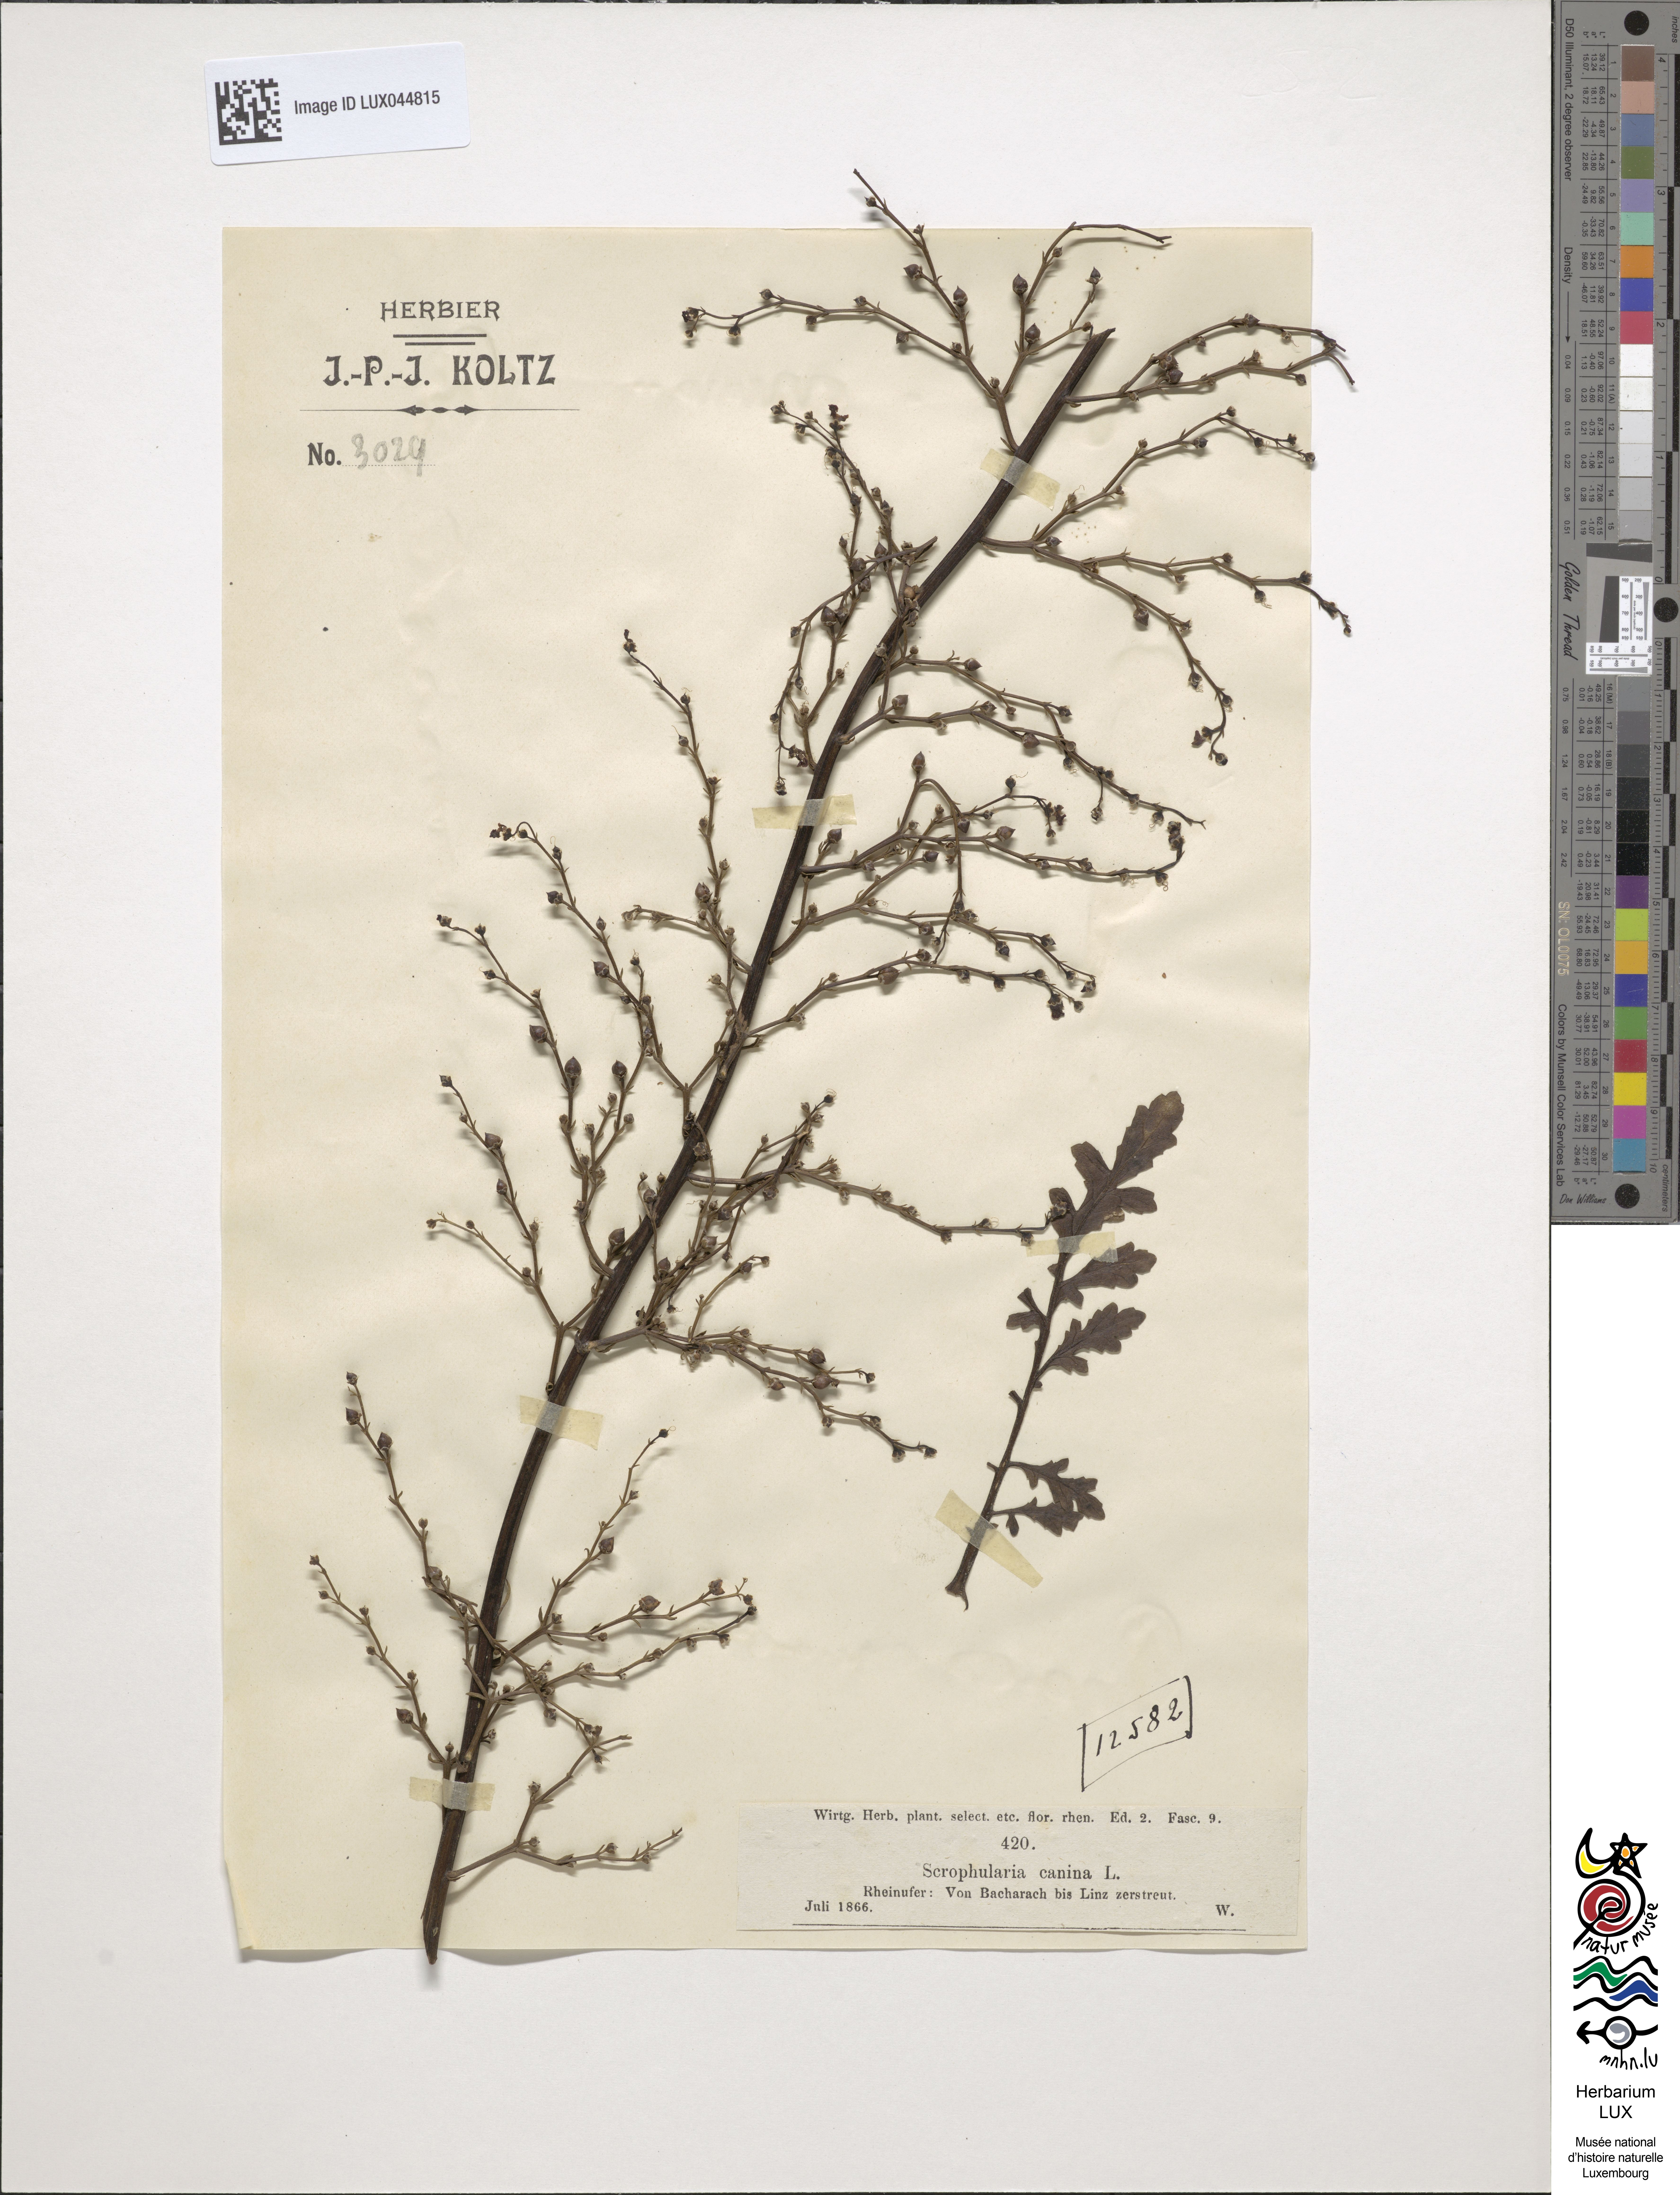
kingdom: Plantae
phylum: Tracheophyta
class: Magnoliopsida
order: Lamiales
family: Scrophulariaceae
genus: Scrophularia
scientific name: Scrophularia canina
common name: French figwort
